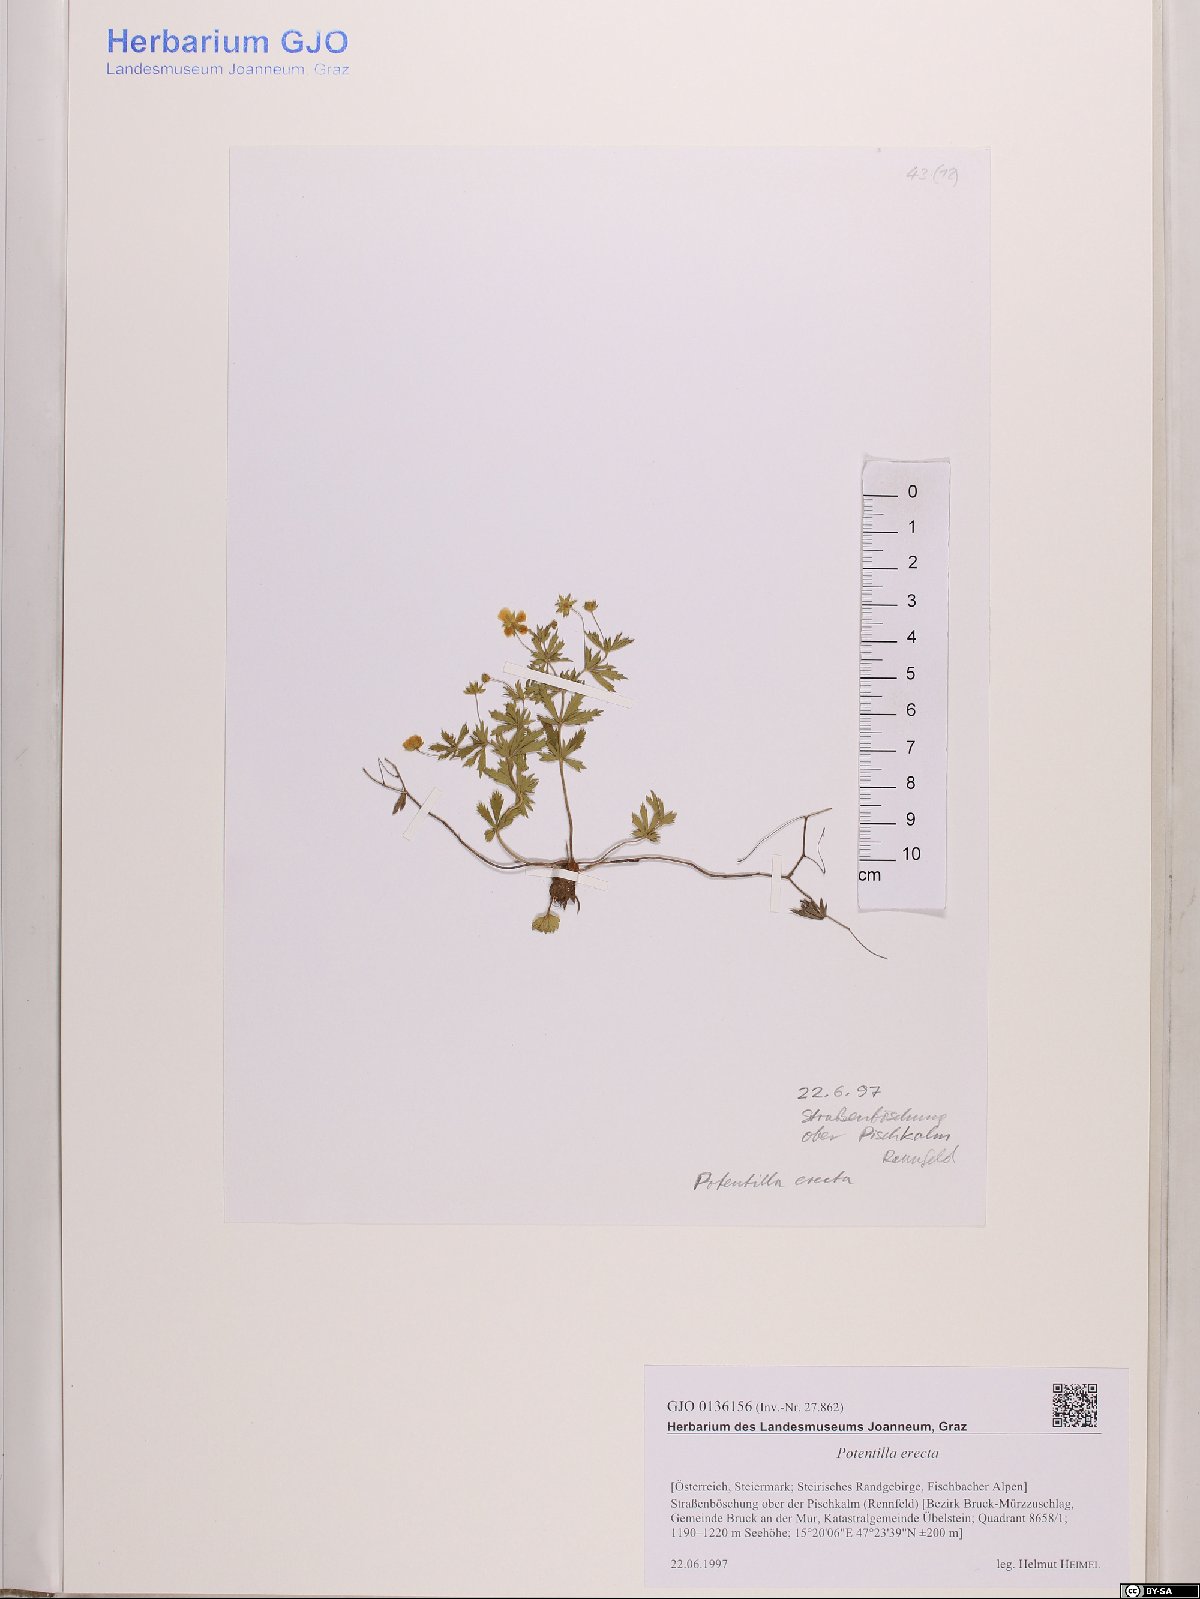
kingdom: Plantae
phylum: Tracheophyta
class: Magnoliopsida
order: Rosales
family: Rosaceae
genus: Potentilla
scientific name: Potentilla erecta
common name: Tormentil
